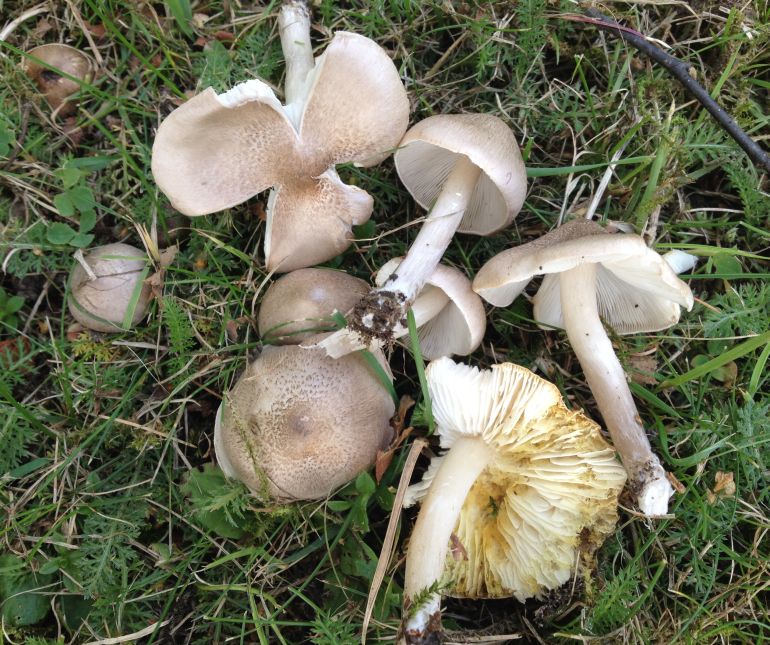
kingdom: Fungi
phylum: Basidiomycota
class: Agaricomycetes
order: Agaricales
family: Tricholomataceae
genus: Tricholoma
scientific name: Tricholoma argyraceum
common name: spids ridderhat
